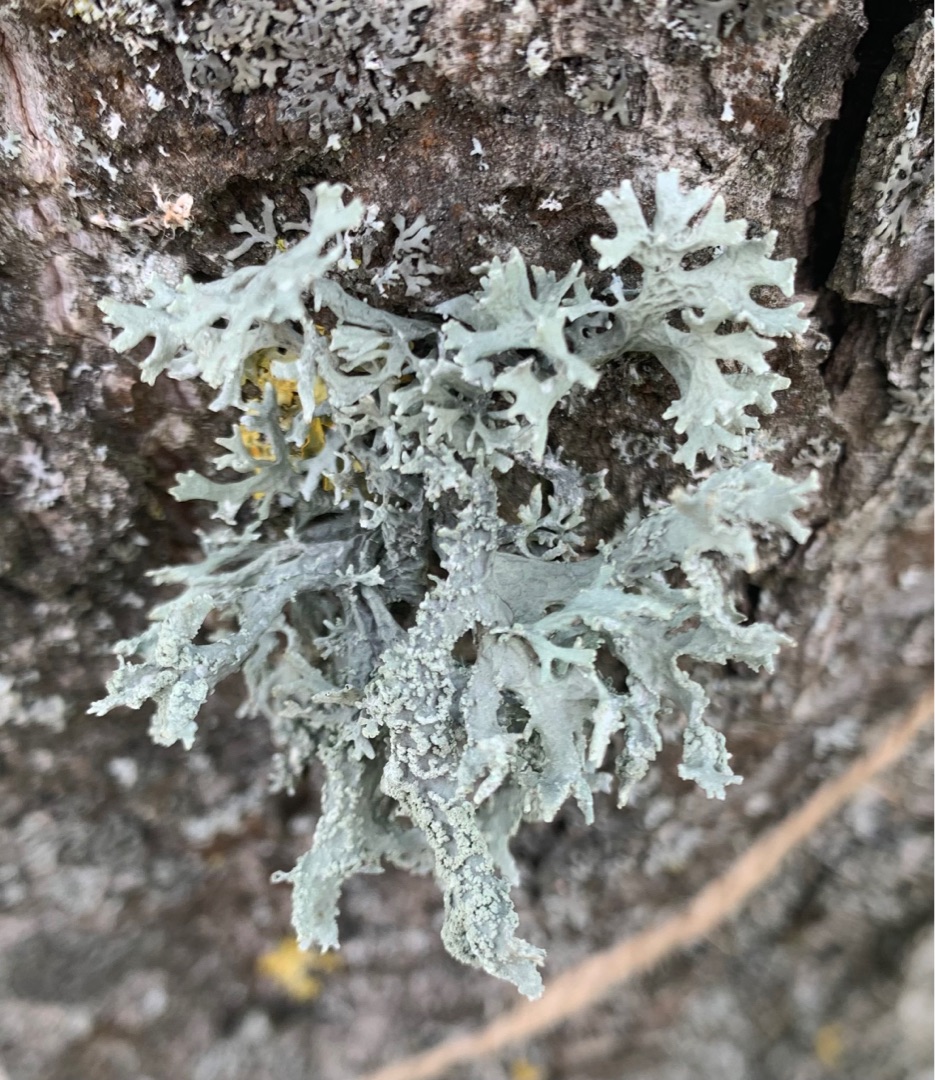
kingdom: Fungi
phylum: Ascomycota
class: Lecanoromycetes
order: Lecanorales
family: Parmeliaceae
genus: Evernia
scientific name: Evernia prunastri
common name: Almindelig slåenlav
